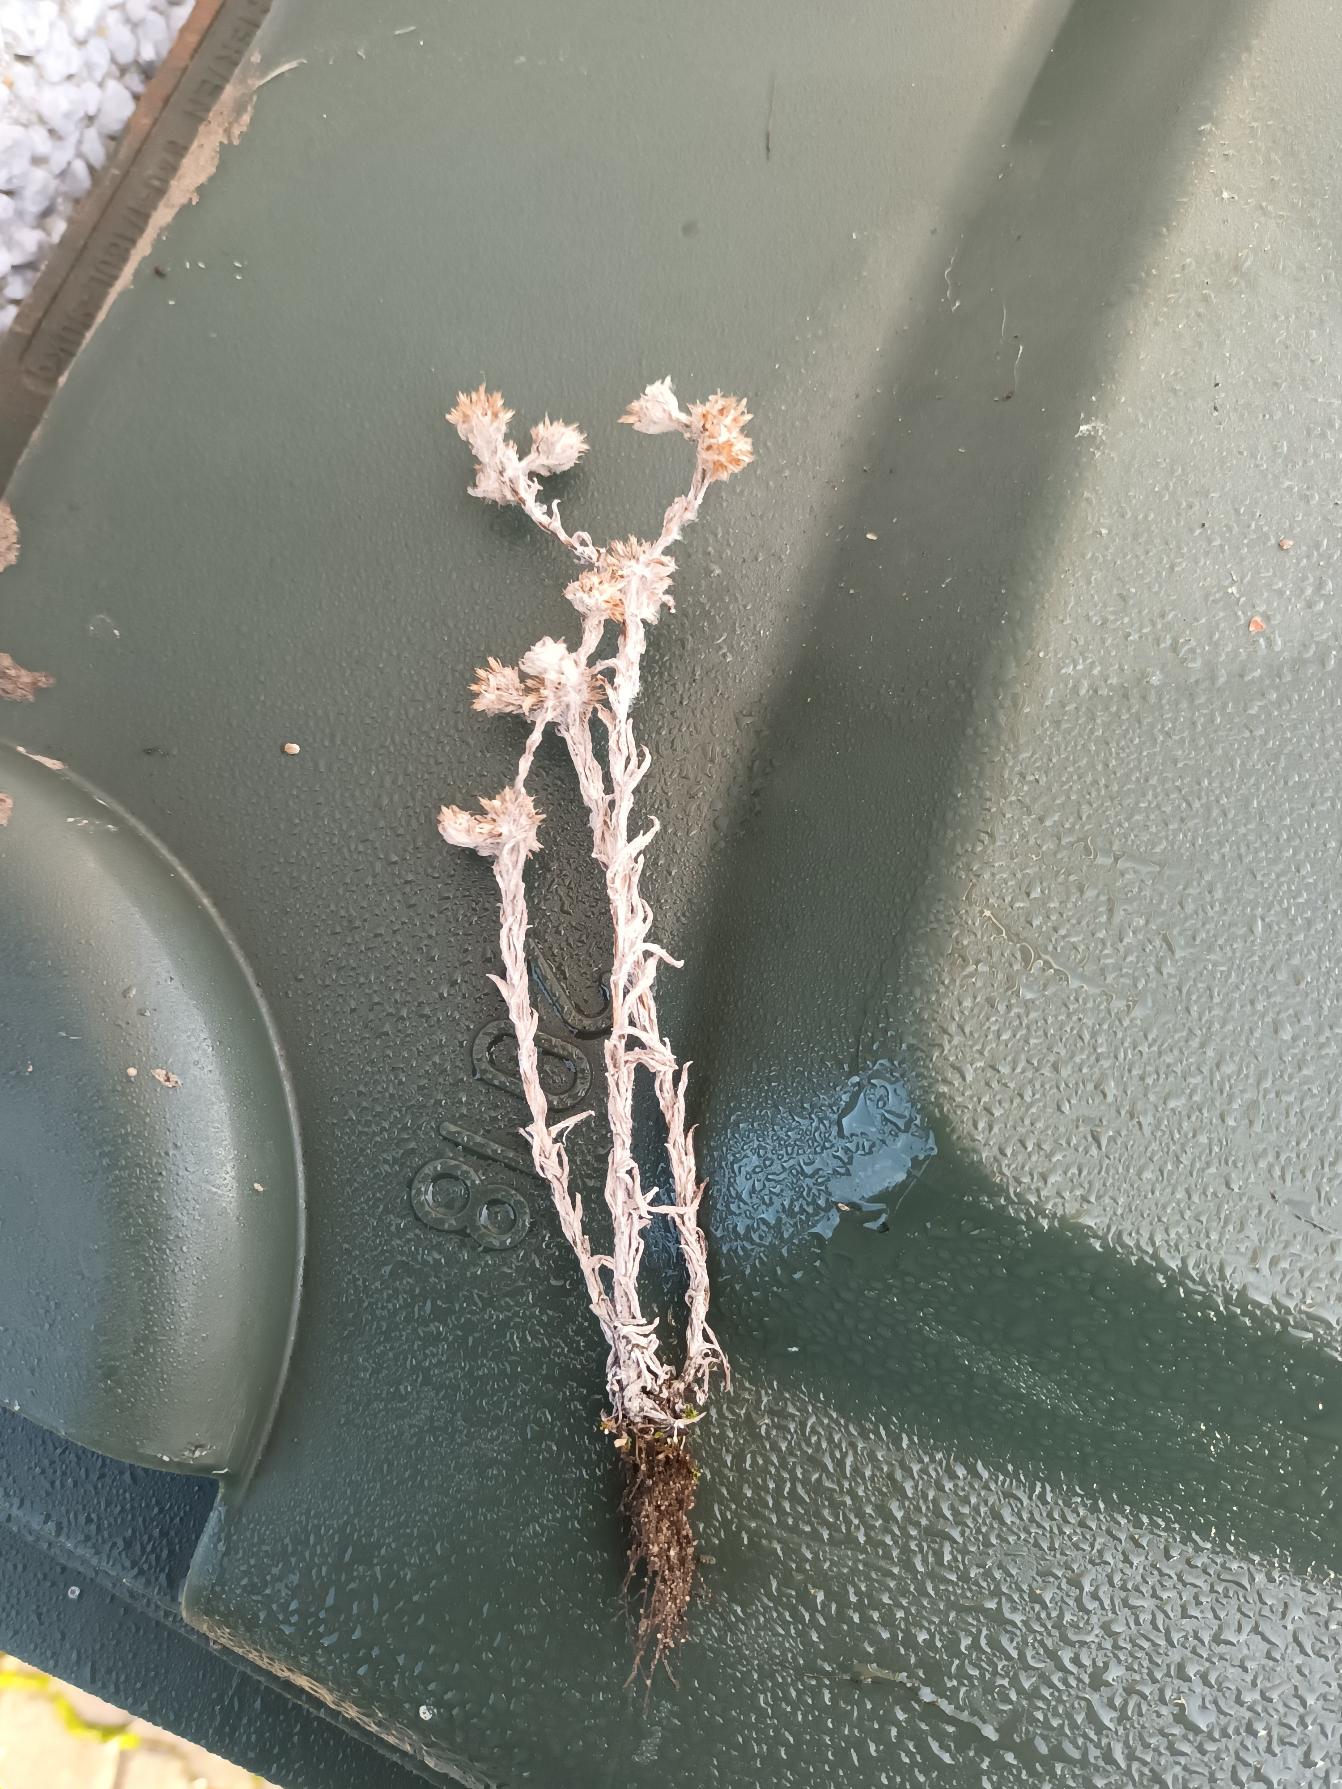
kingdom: Plantae
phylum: Tracheophyta
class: Magnoliopsida
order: Asterales
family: Asteraceae
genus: Filago
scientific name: Filago germanica
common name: Kugle-museurt
